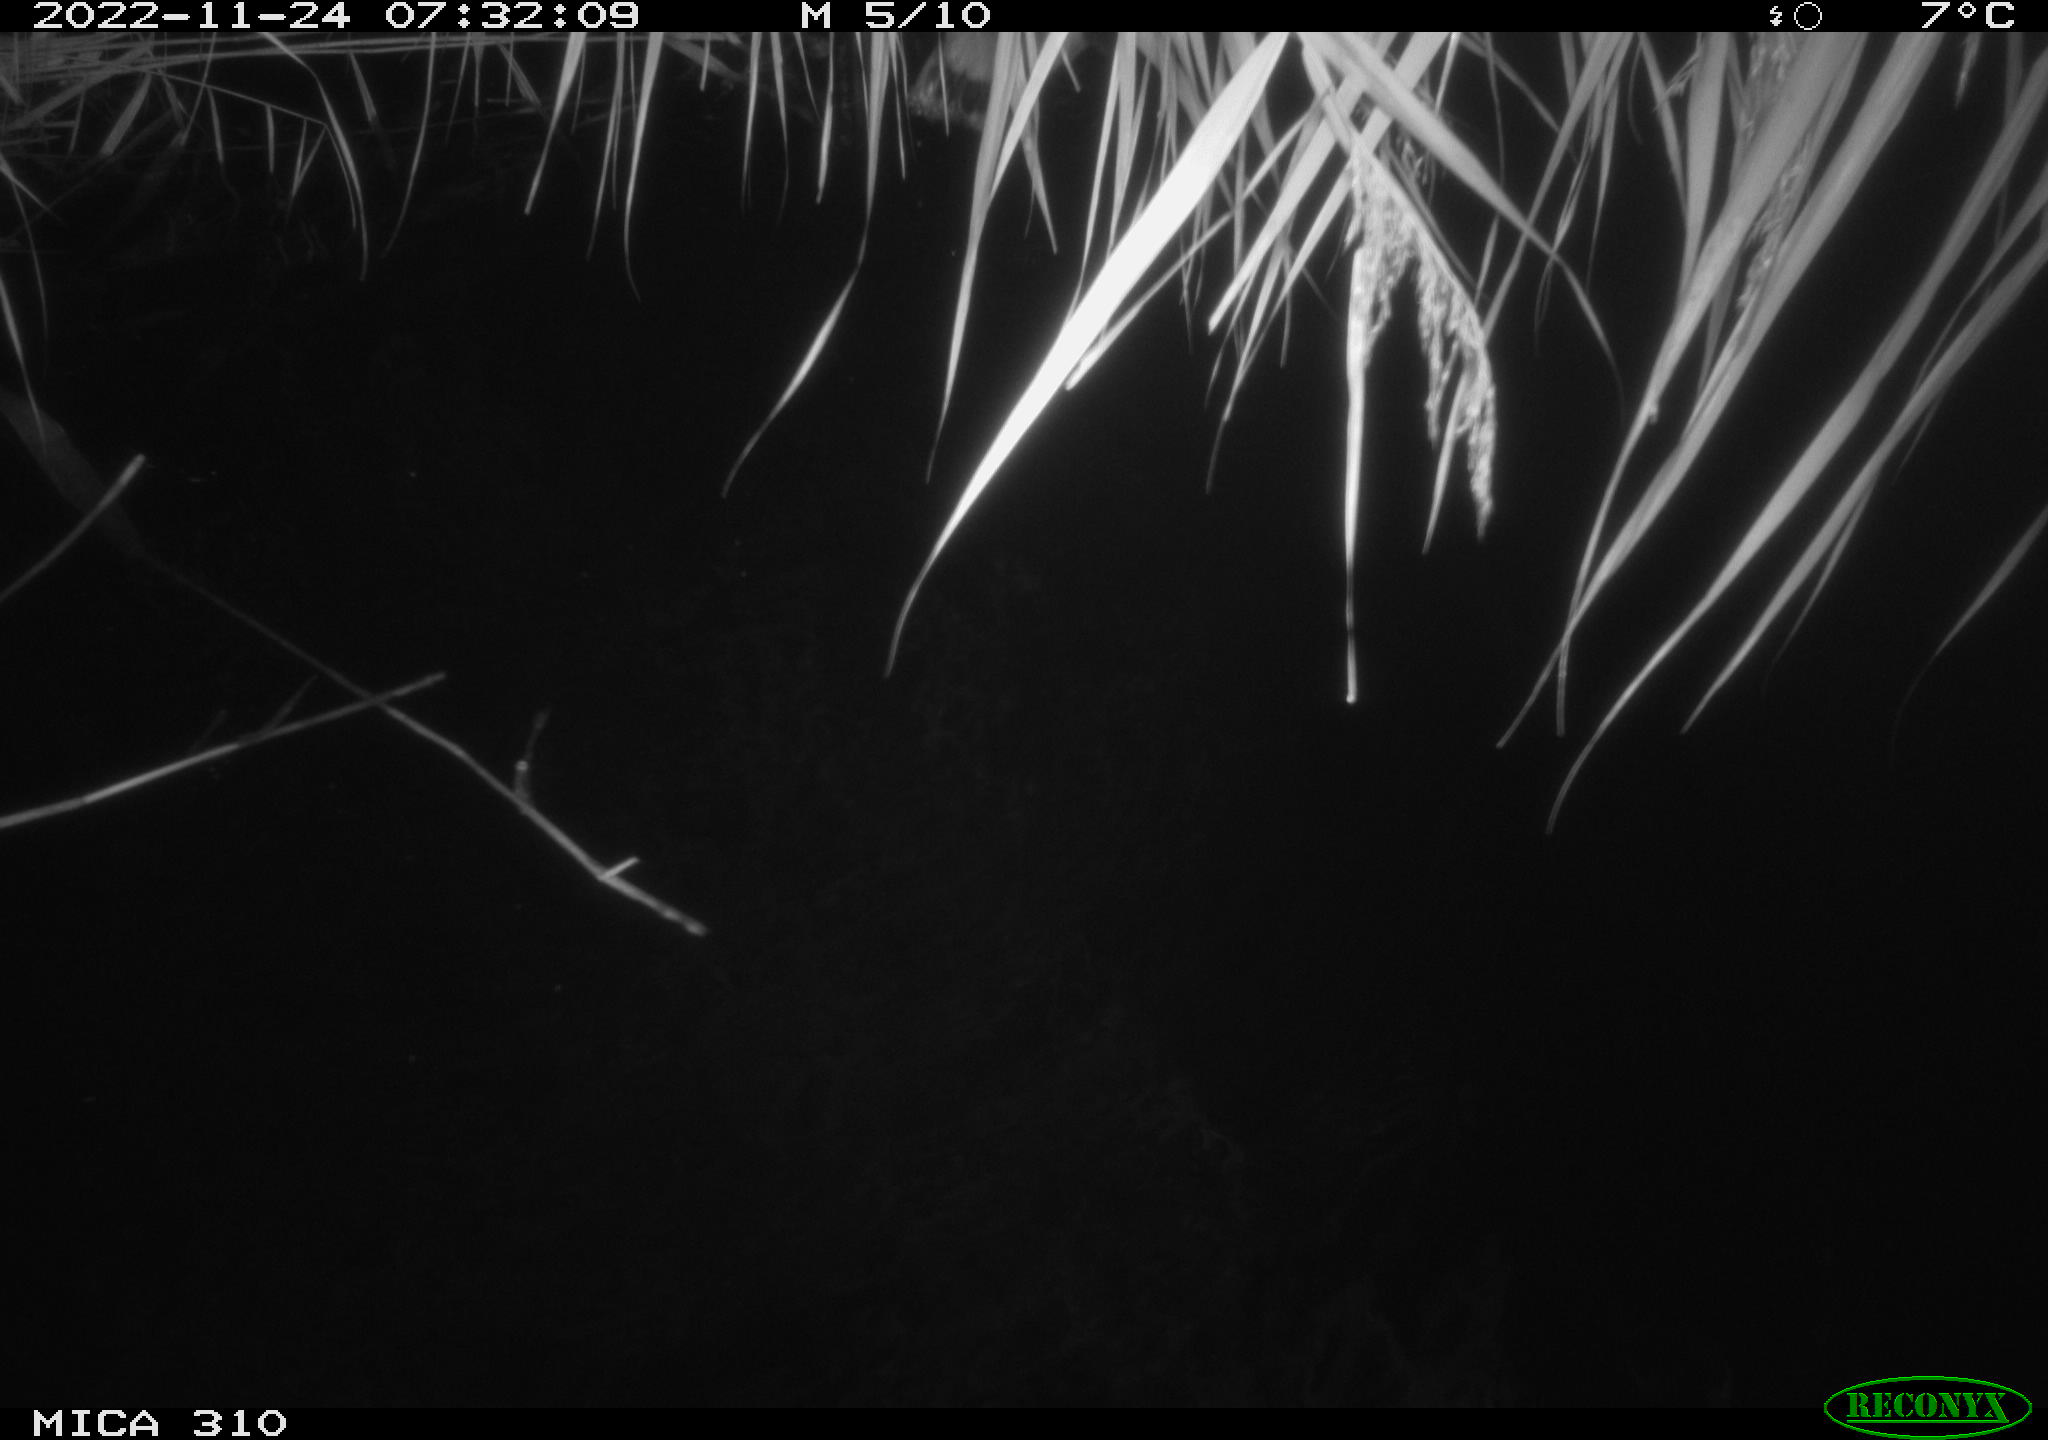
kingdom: Animalia
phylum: Chordata
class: Aves
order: Anseriformes
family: Anatidae
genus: Anas
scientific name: Anas
